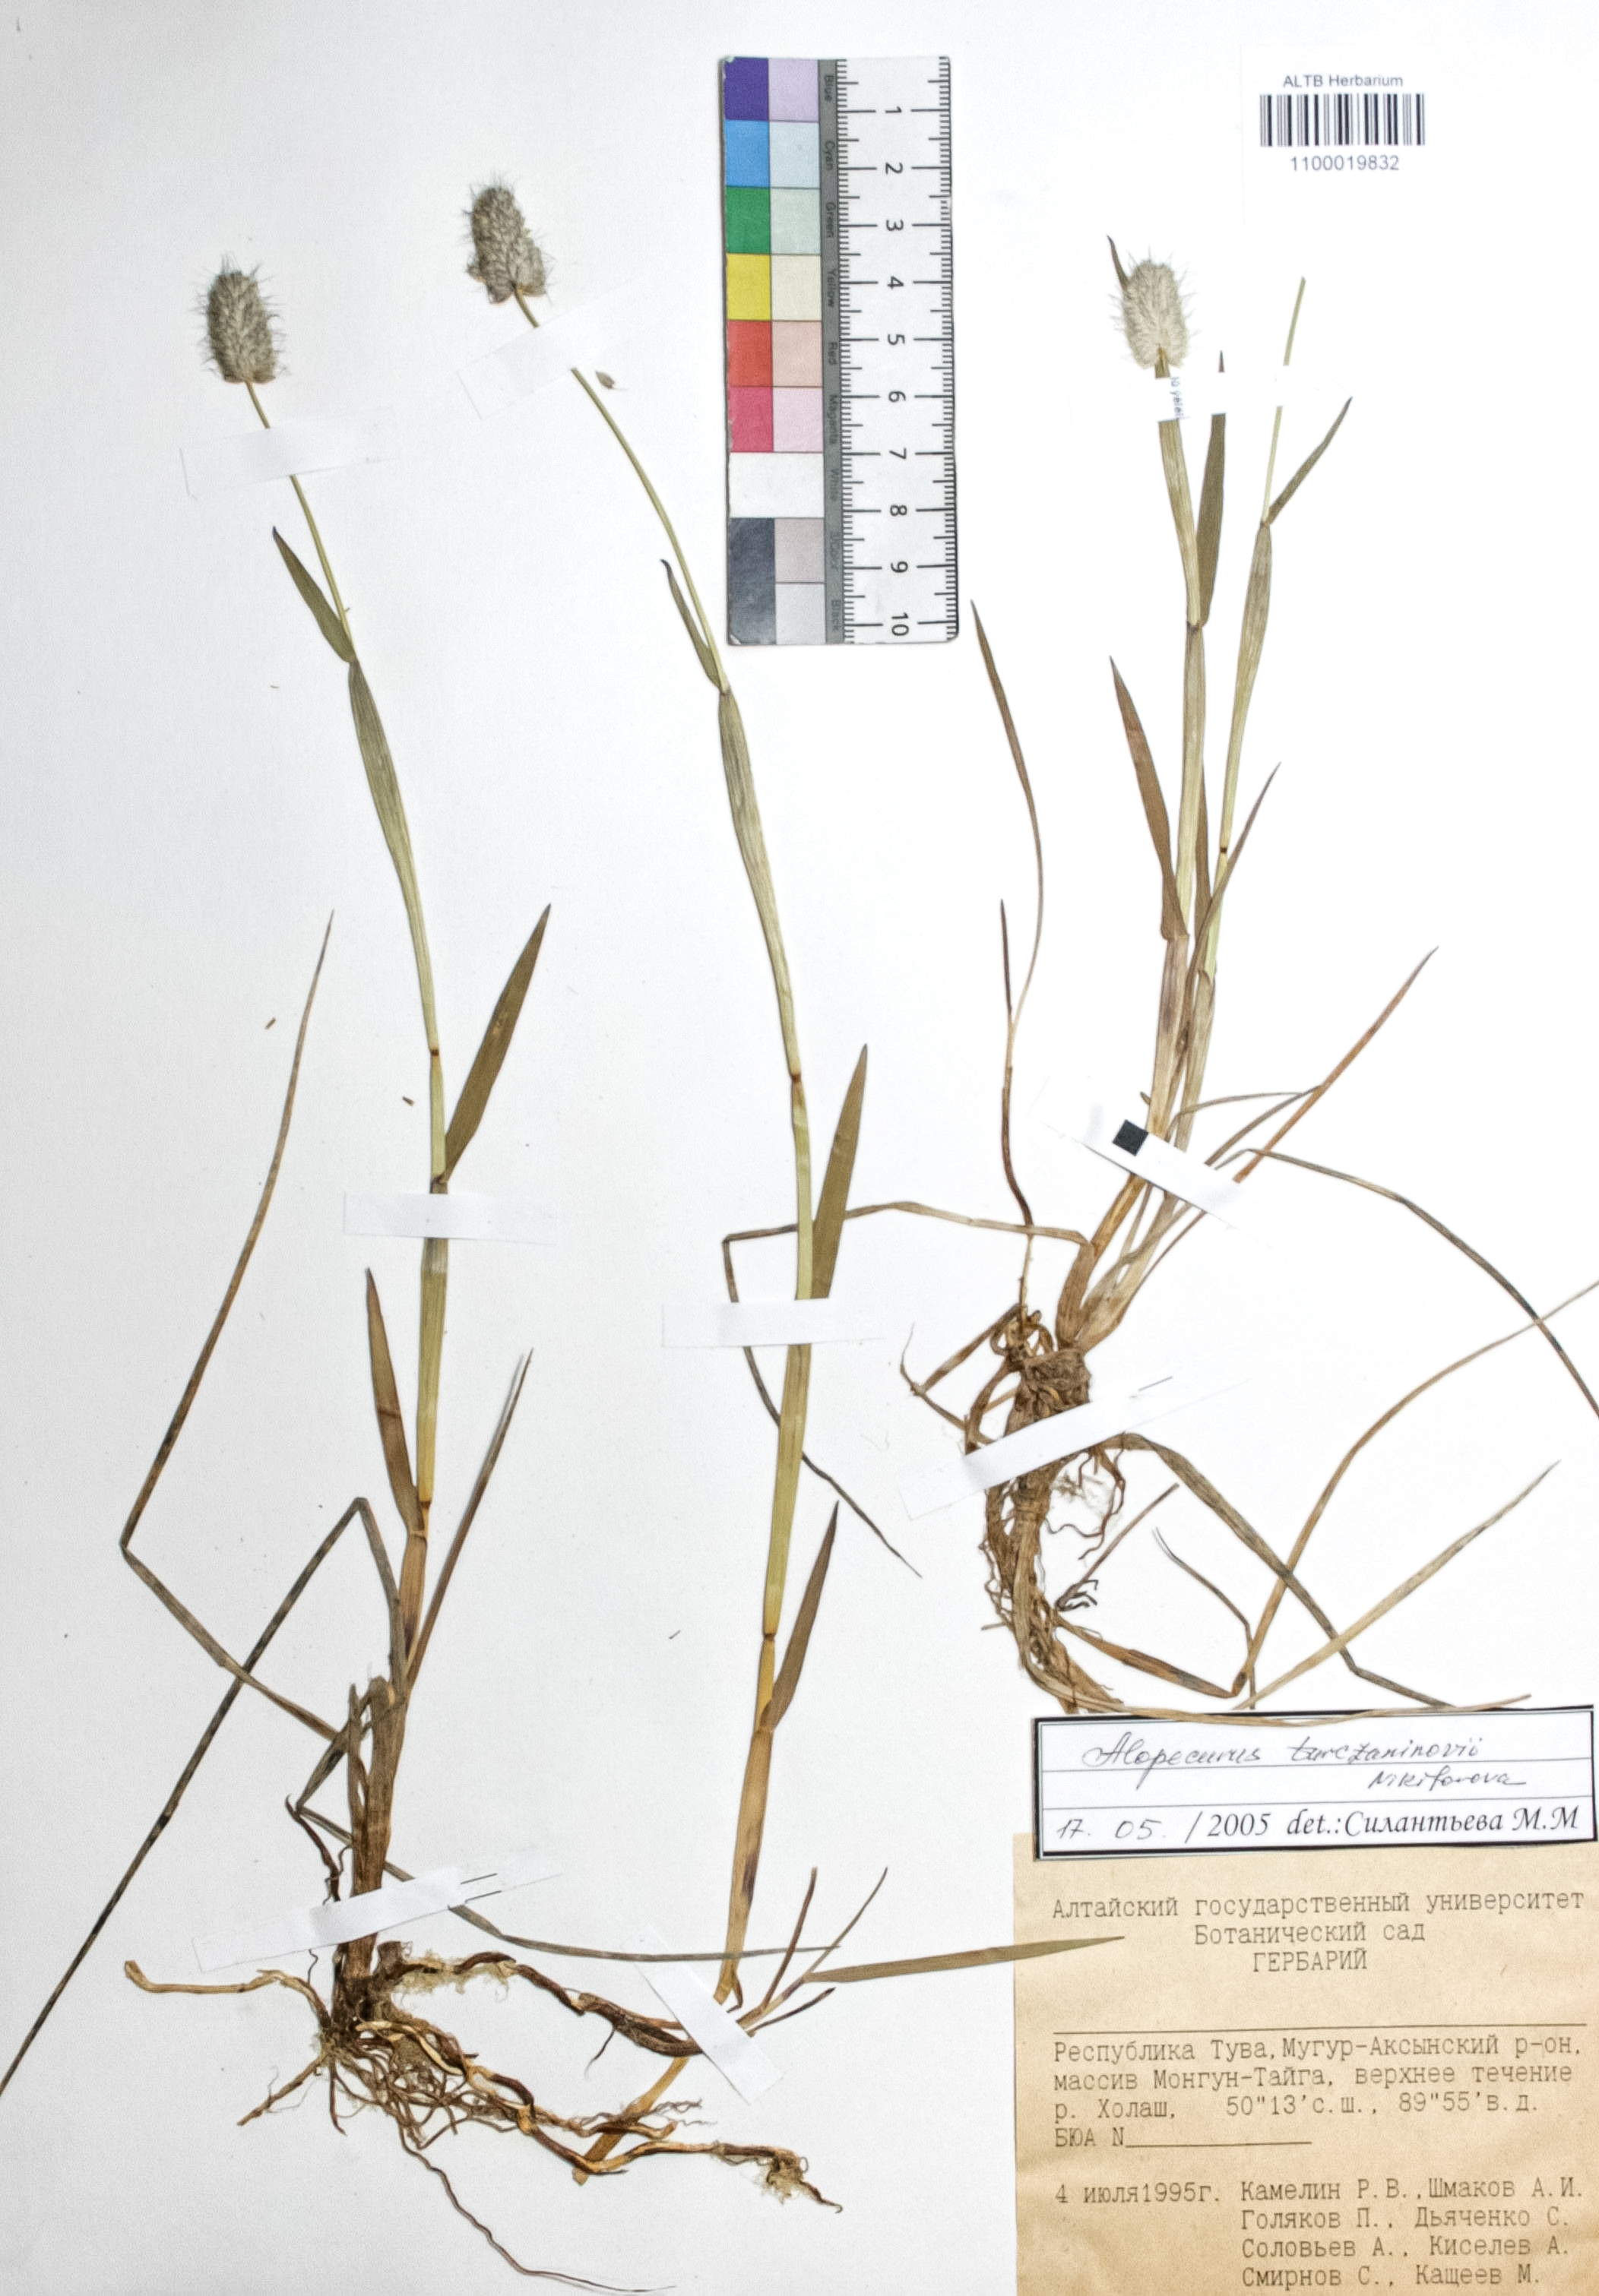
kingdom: Plantae
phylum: Tracheophyta
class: Liliopsida
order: Poales
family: Poaceae
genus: Alopecurus
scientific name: Alopecurus turczaninovii
